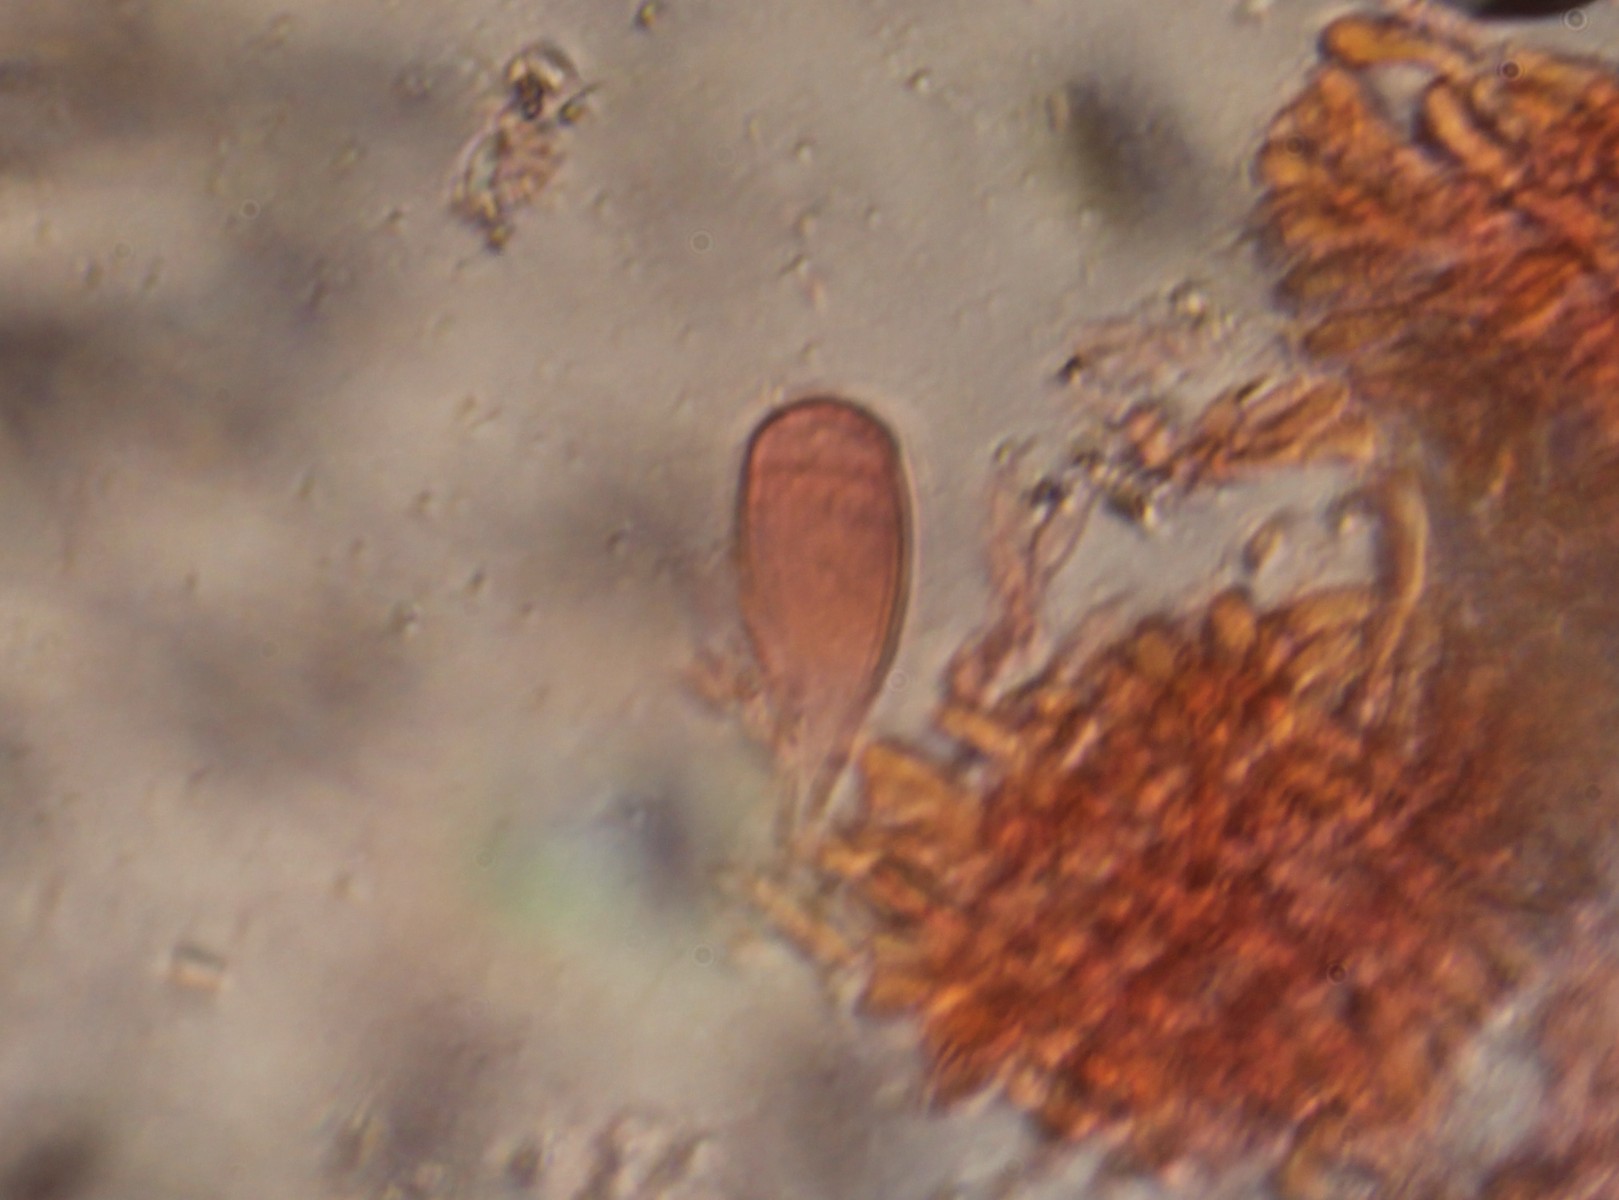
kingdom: Fungi
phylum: Basidiomycota
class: Agaricomycetes
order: Agaricales
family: Physalacriaceae
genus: Strobilurus
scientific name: Strobilurus stephanocystis
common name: fyrre-koglehat
